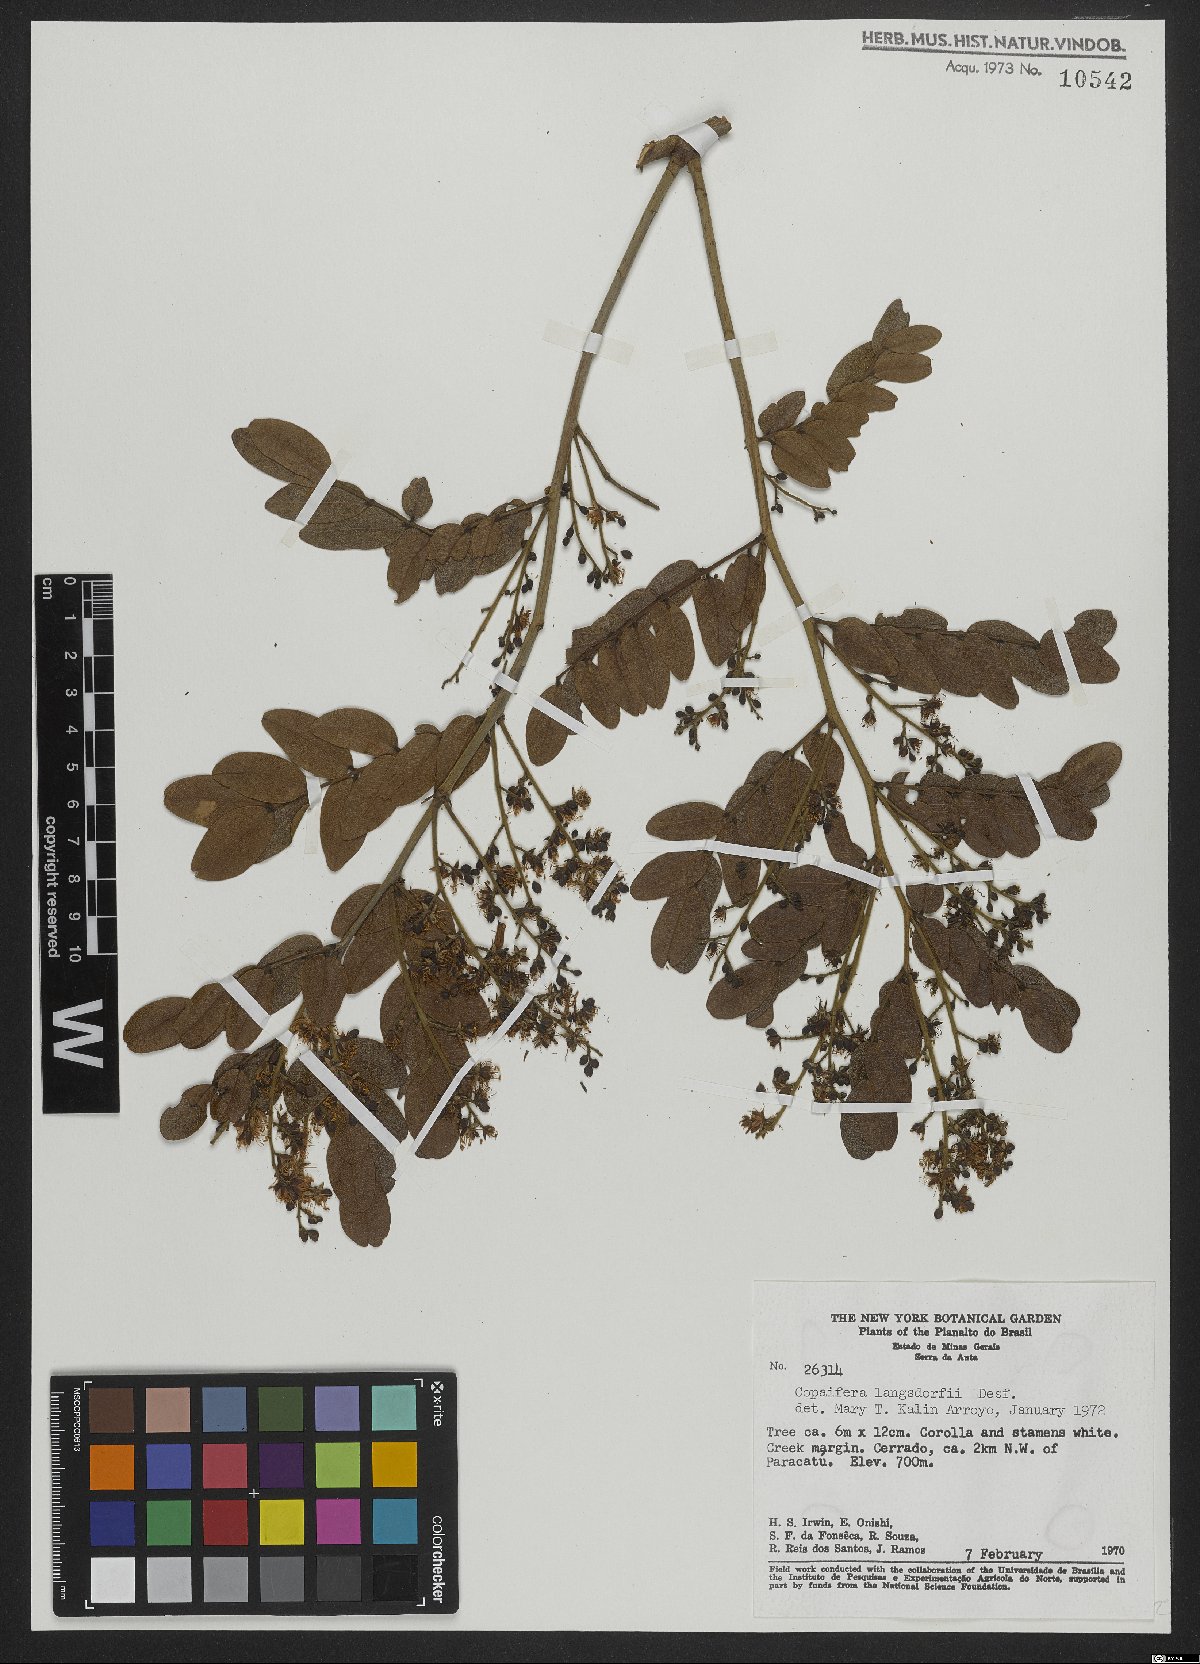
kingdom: Plantae
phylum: Tracheophyta
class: Magnoliopsida
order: Fabales
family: Fabaceae
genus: Copaifera
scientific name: Copaifera langsdorffii
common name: Brazilian diesel tree
